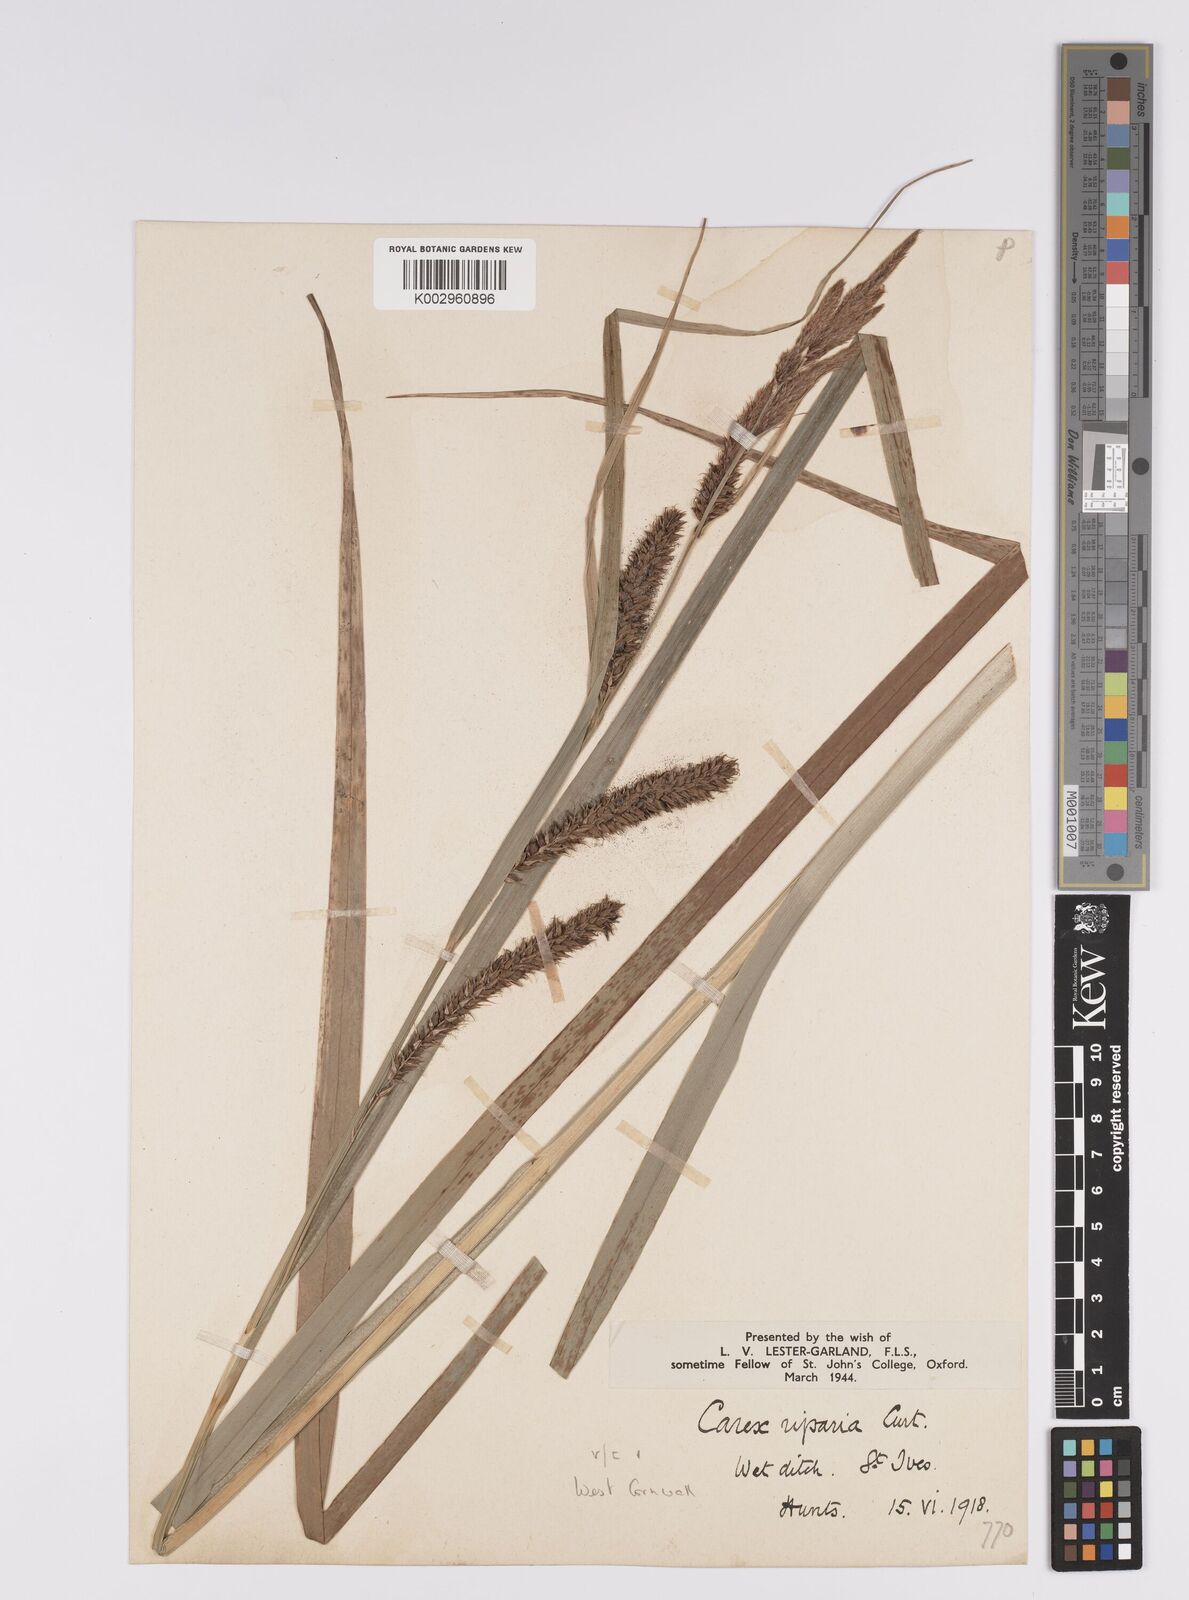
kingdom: Plantae
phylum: Tracheophyta
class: Liliopsida
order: Poales
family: Cyperaceae
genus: Carex
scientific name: Carex riparia
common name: Greater pond-sedge
